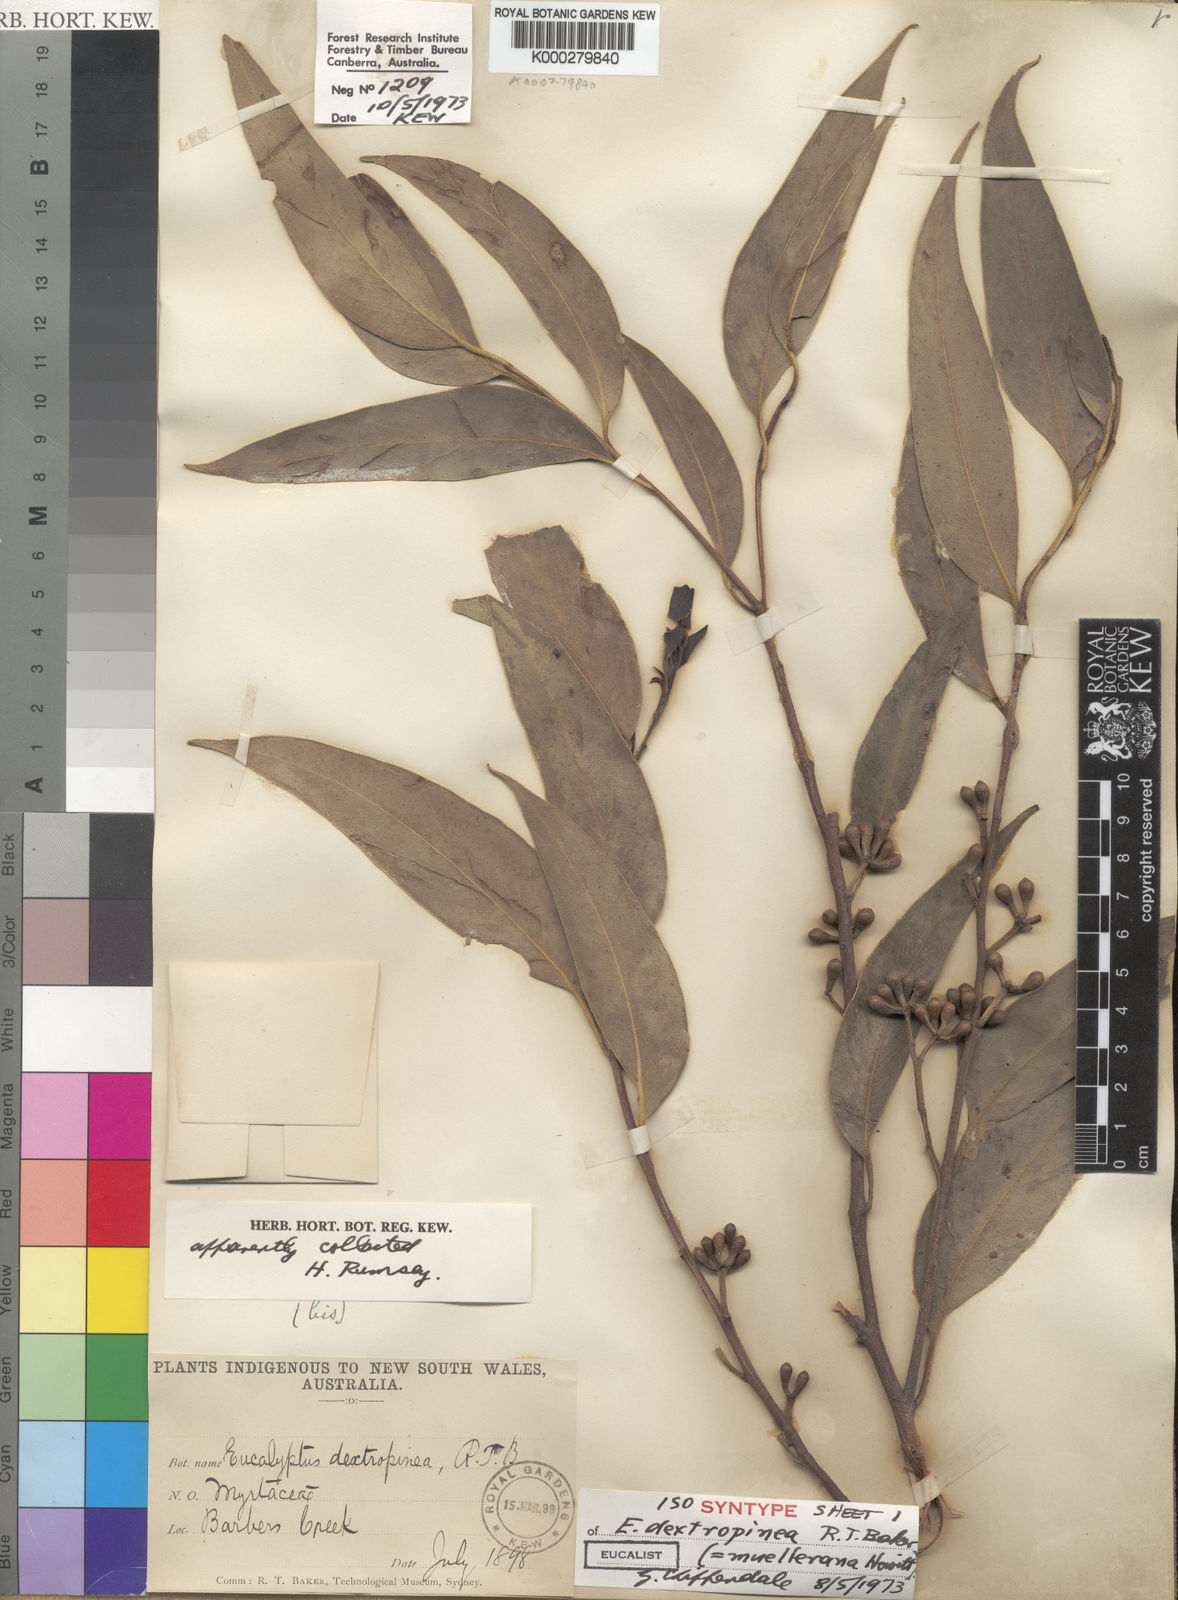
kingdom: Plantae
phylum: Tracheophyta
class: Magnoliopsida
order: Myrtales
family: Myrtaceae
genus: Eucalyptus
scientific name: Eucalyptus muelleriana
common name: Yellow-stringybark
